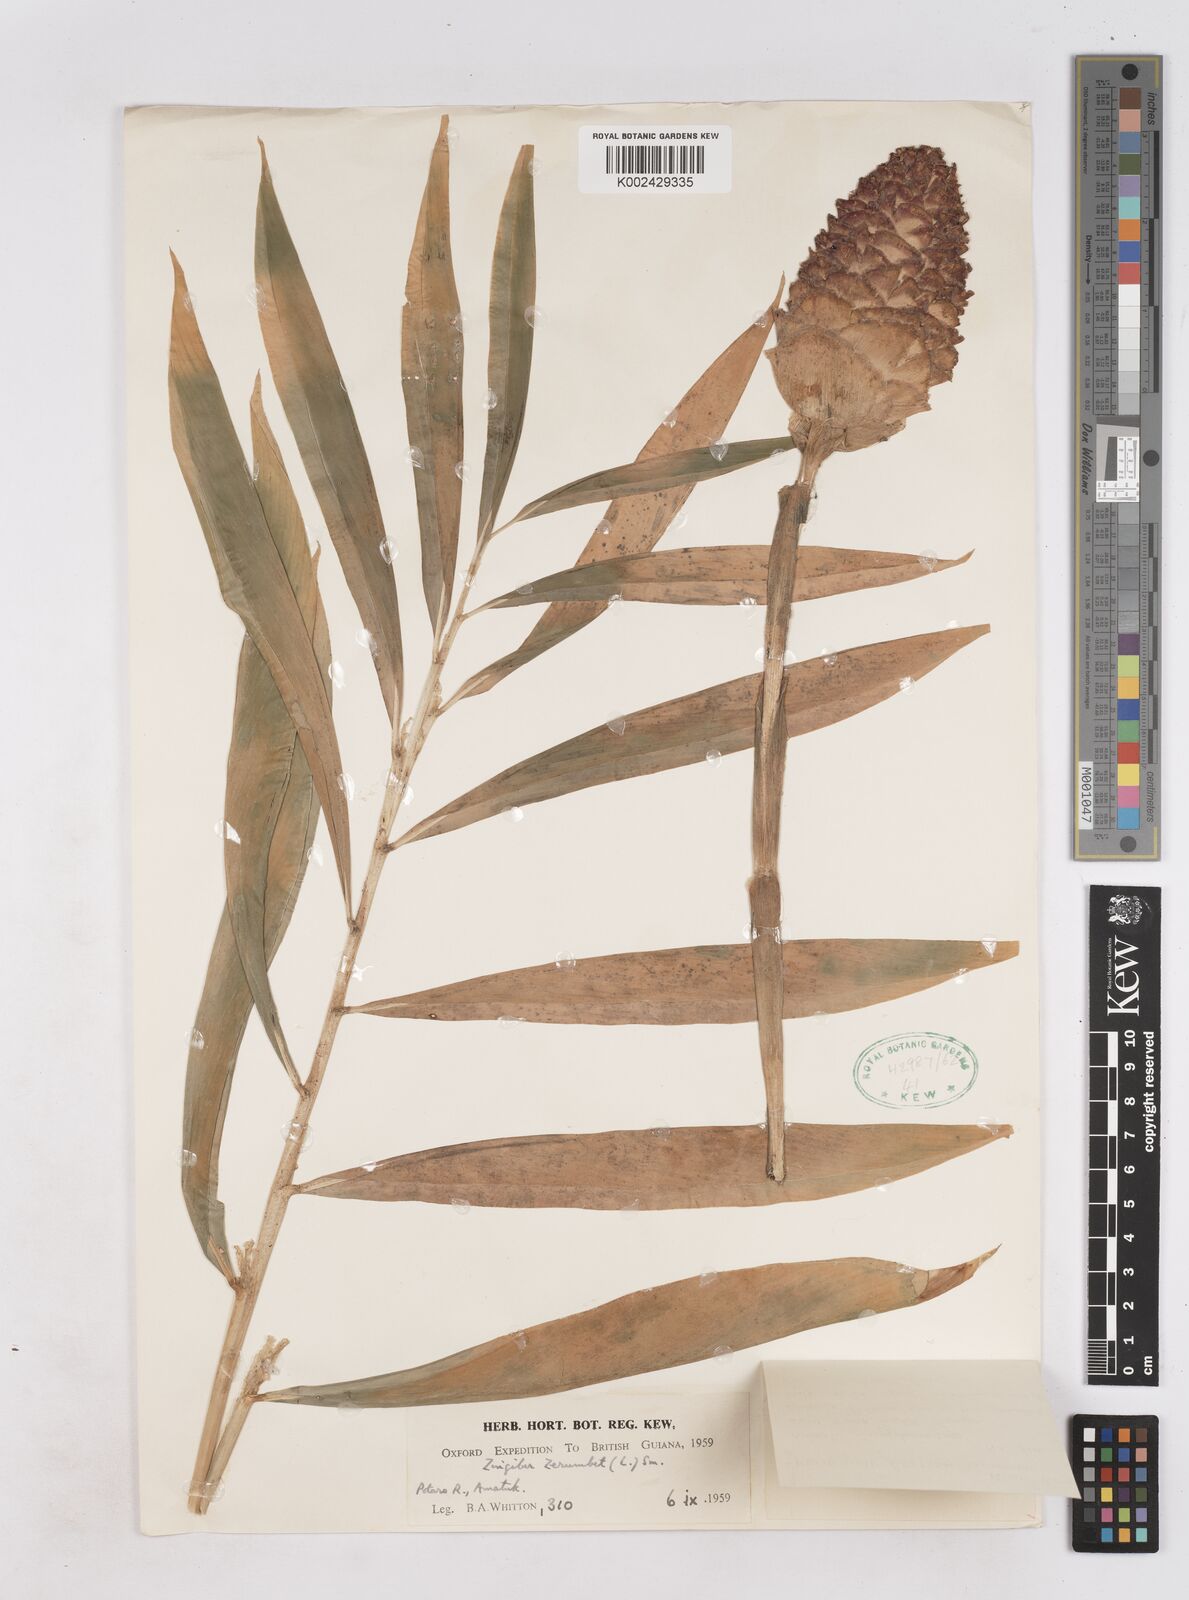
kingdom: Plantae
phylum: Tracheophyta
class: Liliopsida
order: Zingiberales
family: Zingiberaceae
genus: Zingiber
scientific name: Zingiber zerumbet
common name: Bitter ginger
